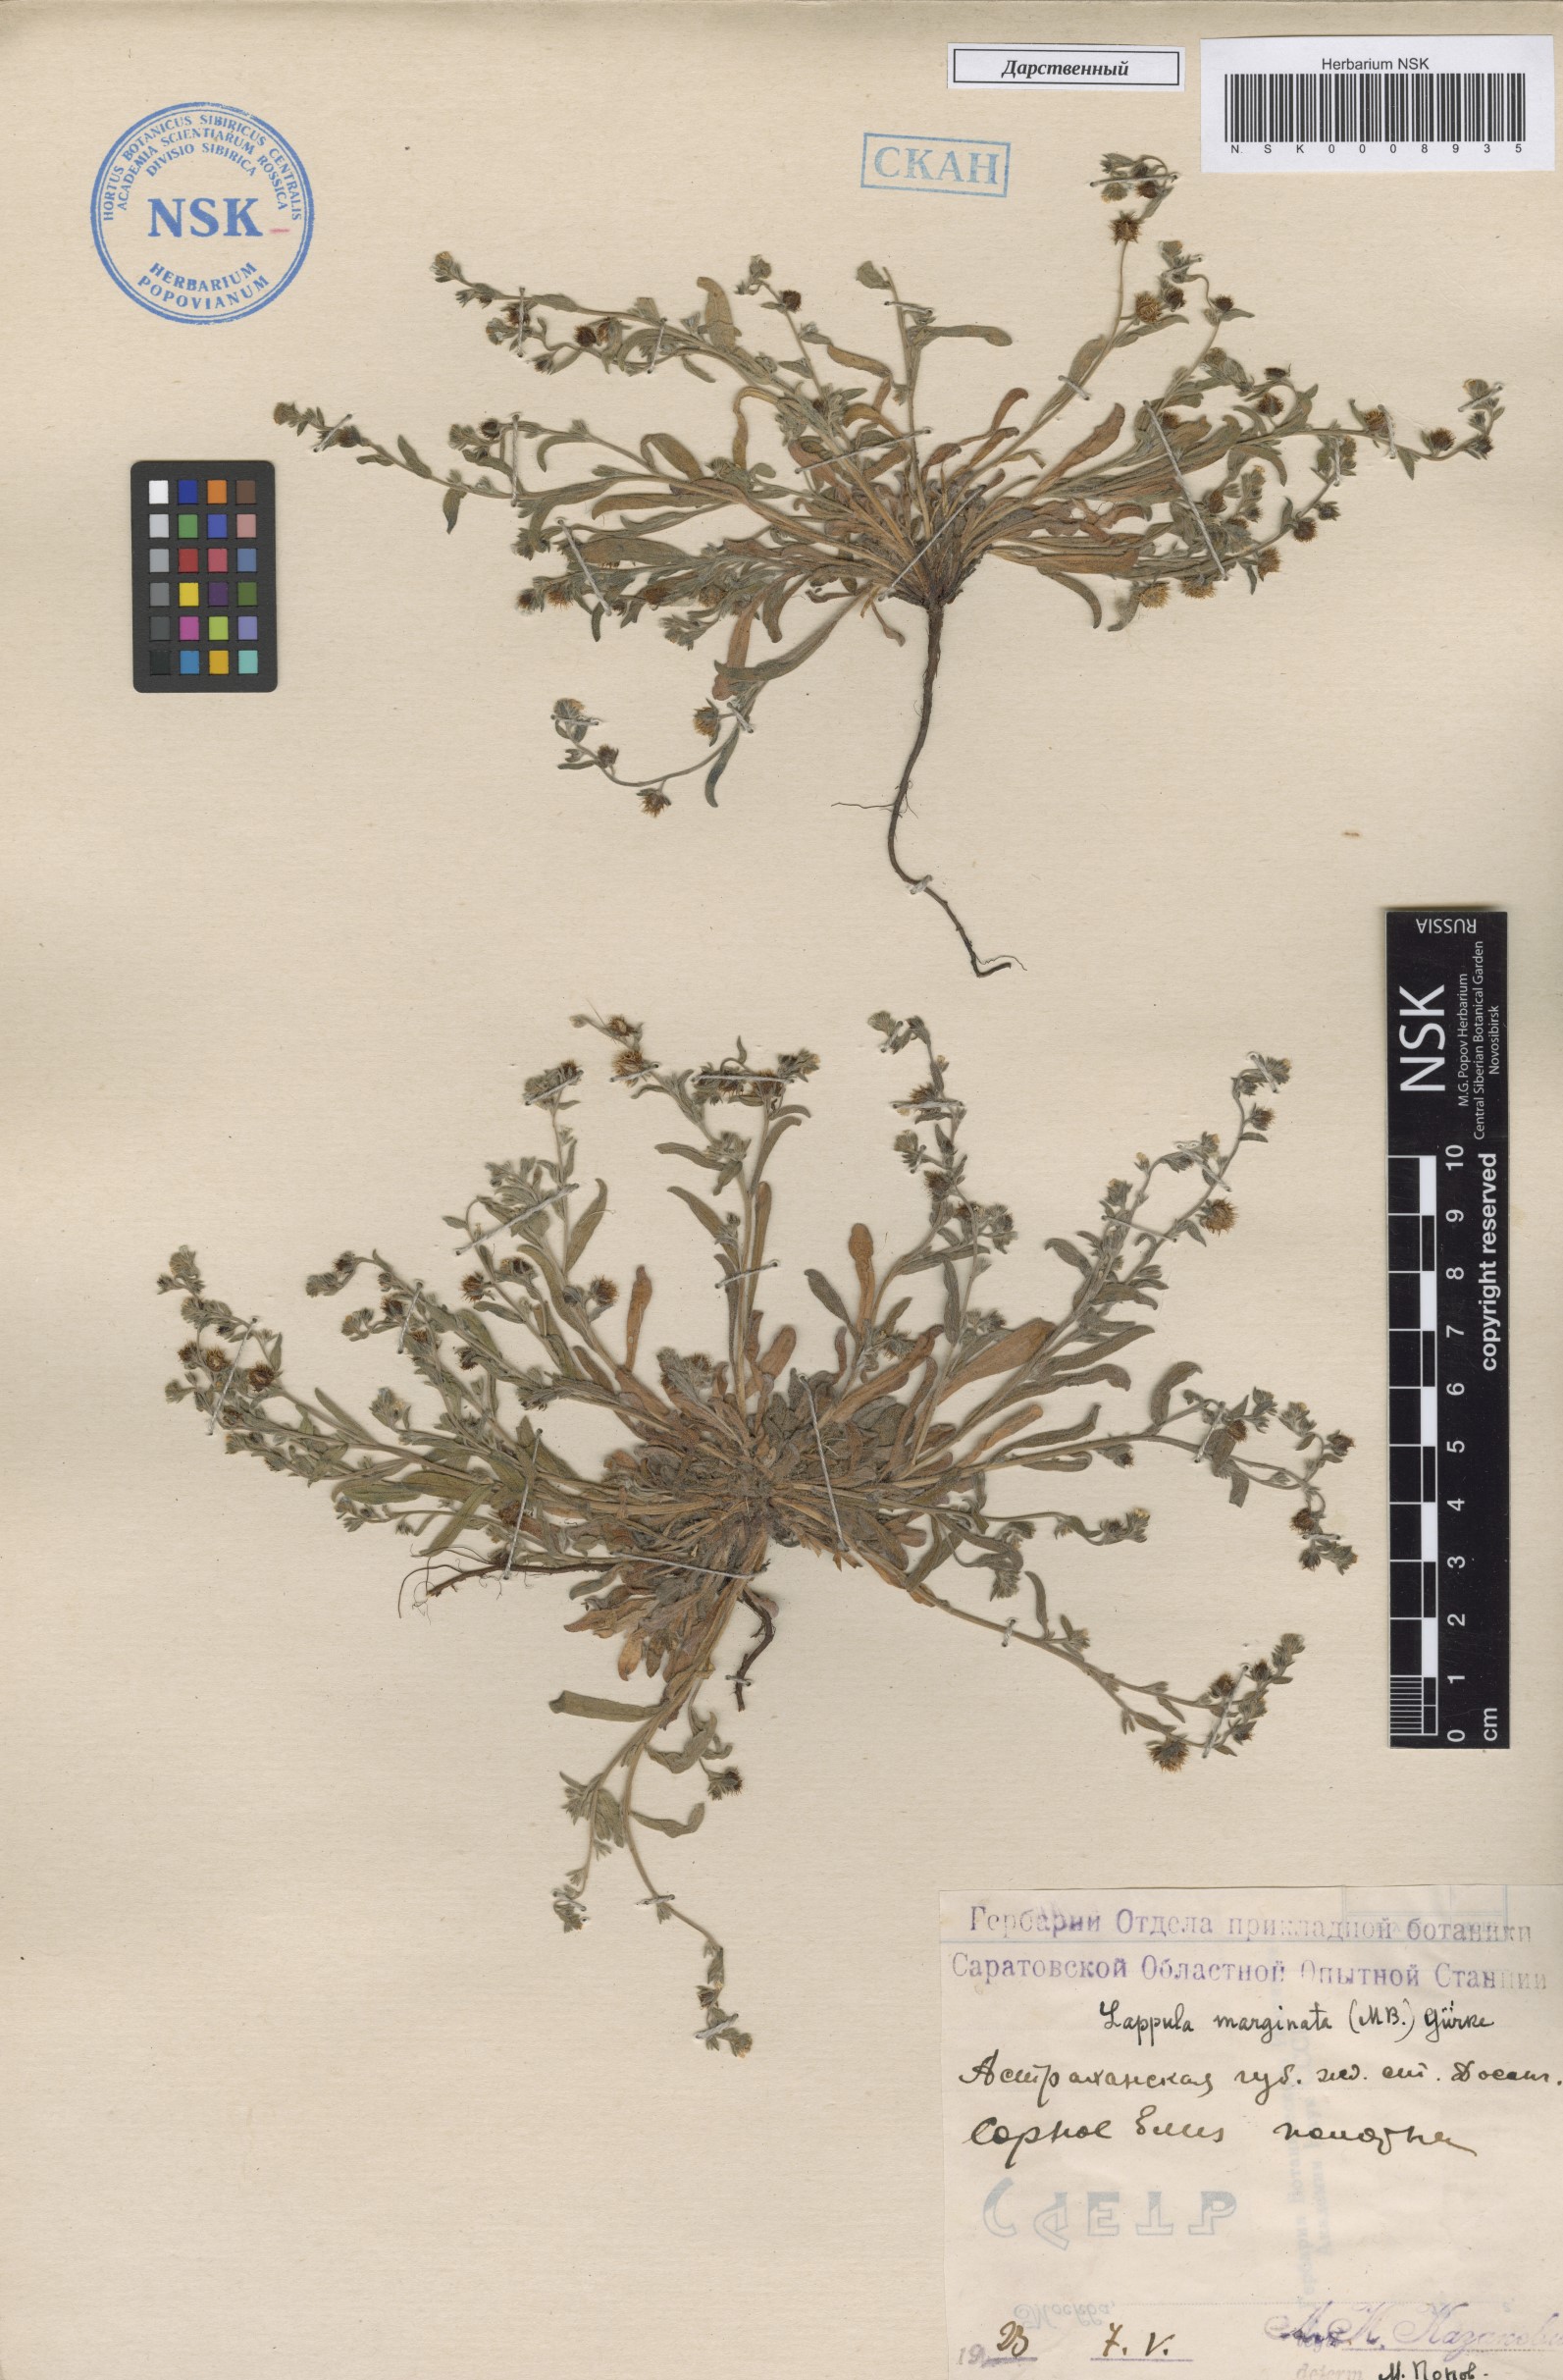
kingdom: Plantae
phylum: Tracheophyta
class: Magnoliopsida
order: Boraginales
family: Boraginaceae
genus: Lappula
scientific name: Lappula marginata
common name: Margined stickseed
